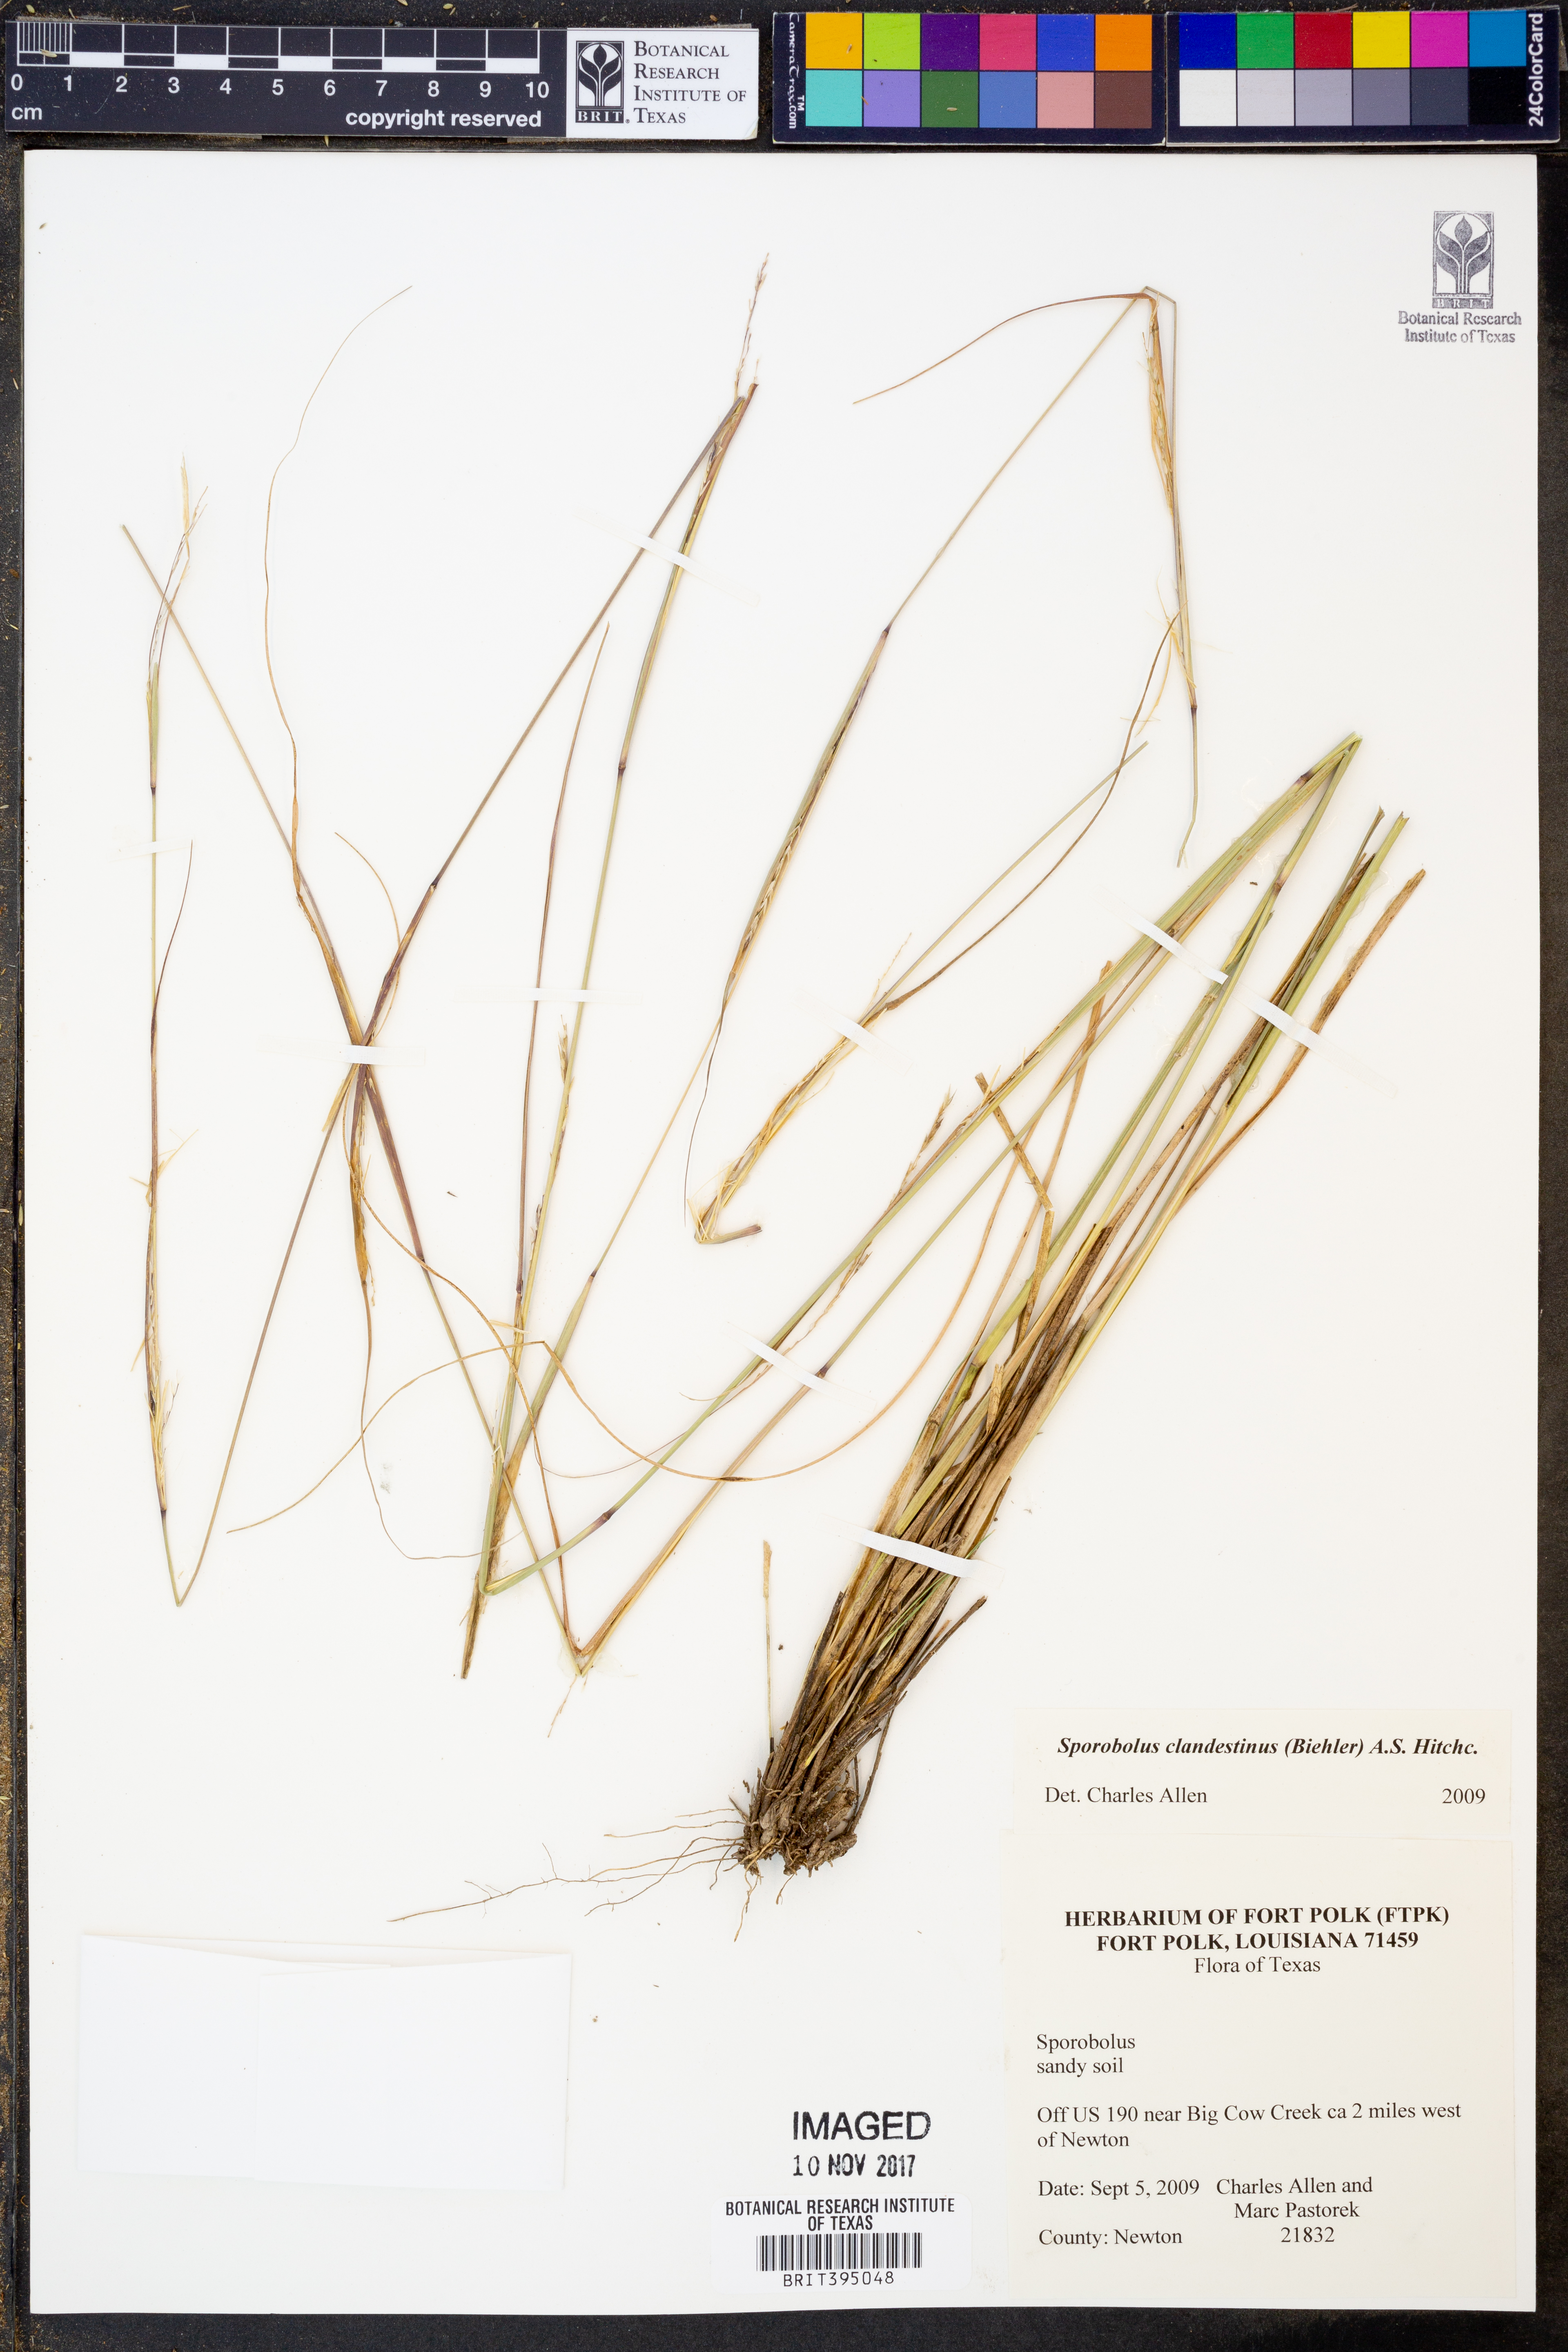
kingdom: Plantae
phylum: Tracheophyta
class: Liliopsida
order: Poales
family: Poaceae
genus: Sporobolus
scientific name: Sporobolus clandestinus
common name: Hidden dropseed
